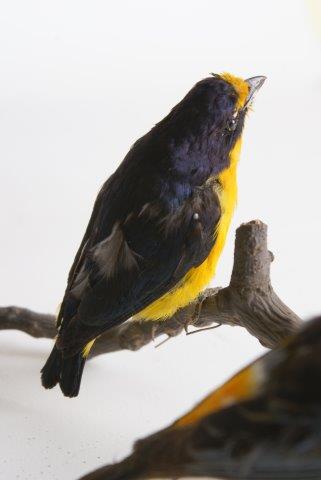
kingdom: Animalia
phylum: Chordata
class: Aves
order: Passeriformes
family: Fringillidae
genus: Euphonia
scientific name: Euphonia
